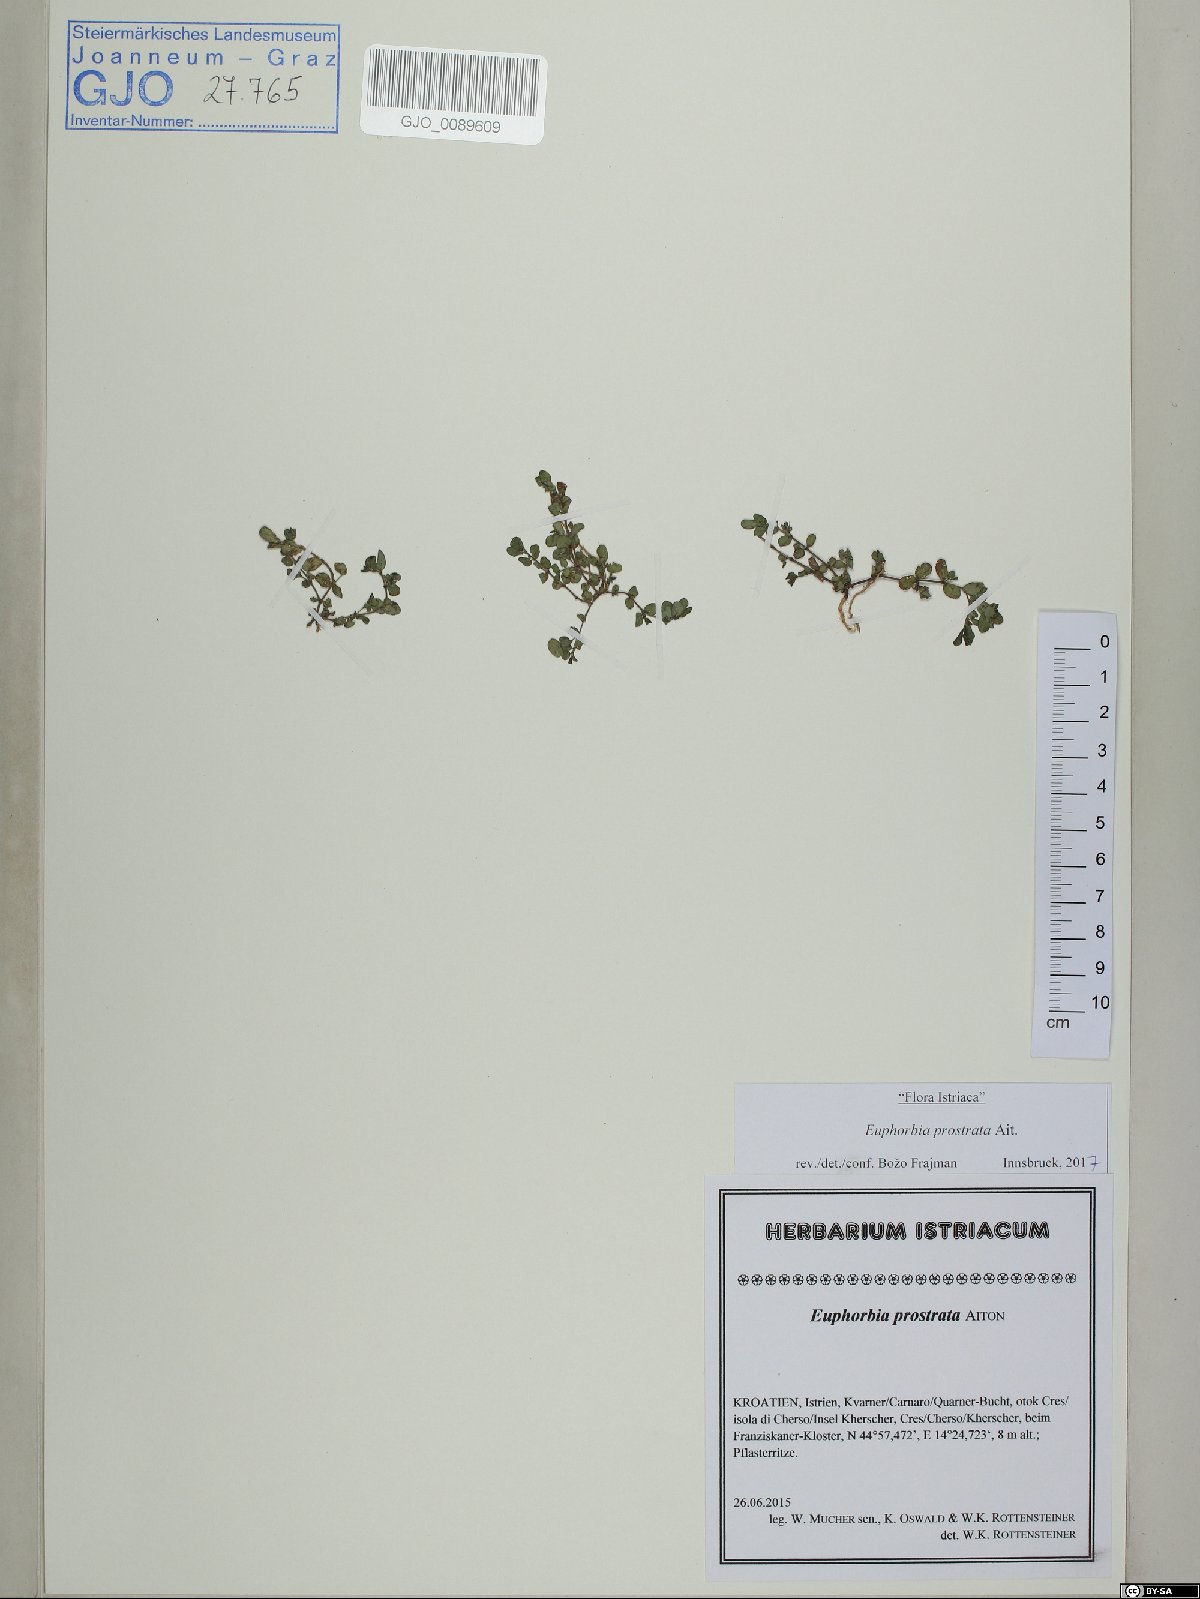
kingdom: Plantae
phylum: Tracheophyta
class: Magnoliopsida
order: Malpighiales
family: Euphorbiaceae
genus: Euphorbia
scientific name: Euphorbia prostrata
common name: Prostrate sandmat
